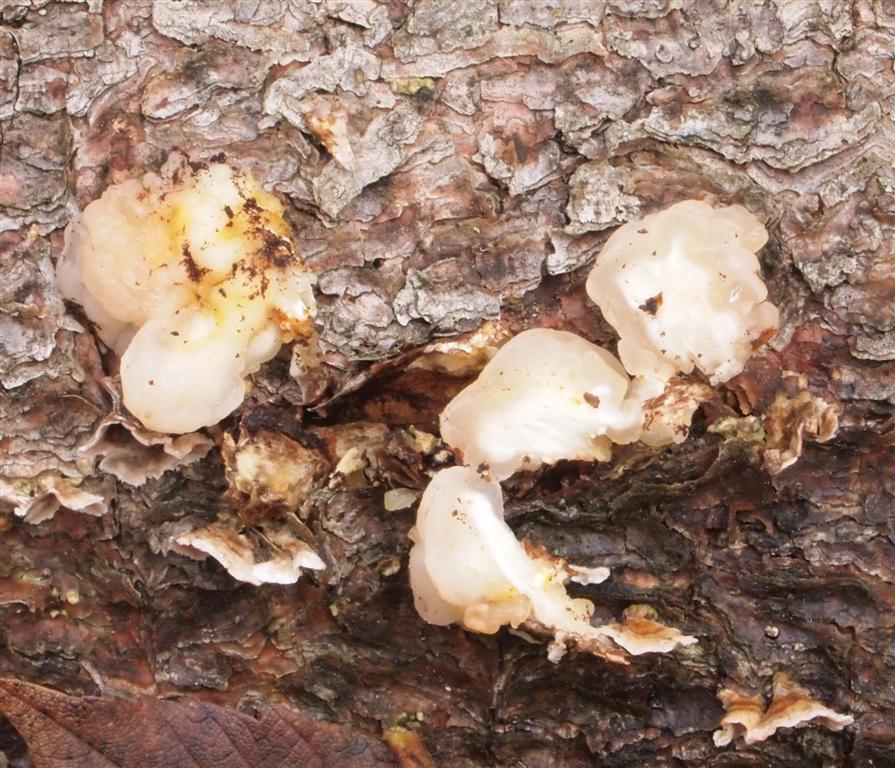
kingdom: Fungi
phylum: Basidiomycota
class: Tremellomycetes
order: Tremellales
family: Naemateliaceae
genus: Naematelia
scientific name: Naematelia encephala
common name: fyrre-bævresvamp
